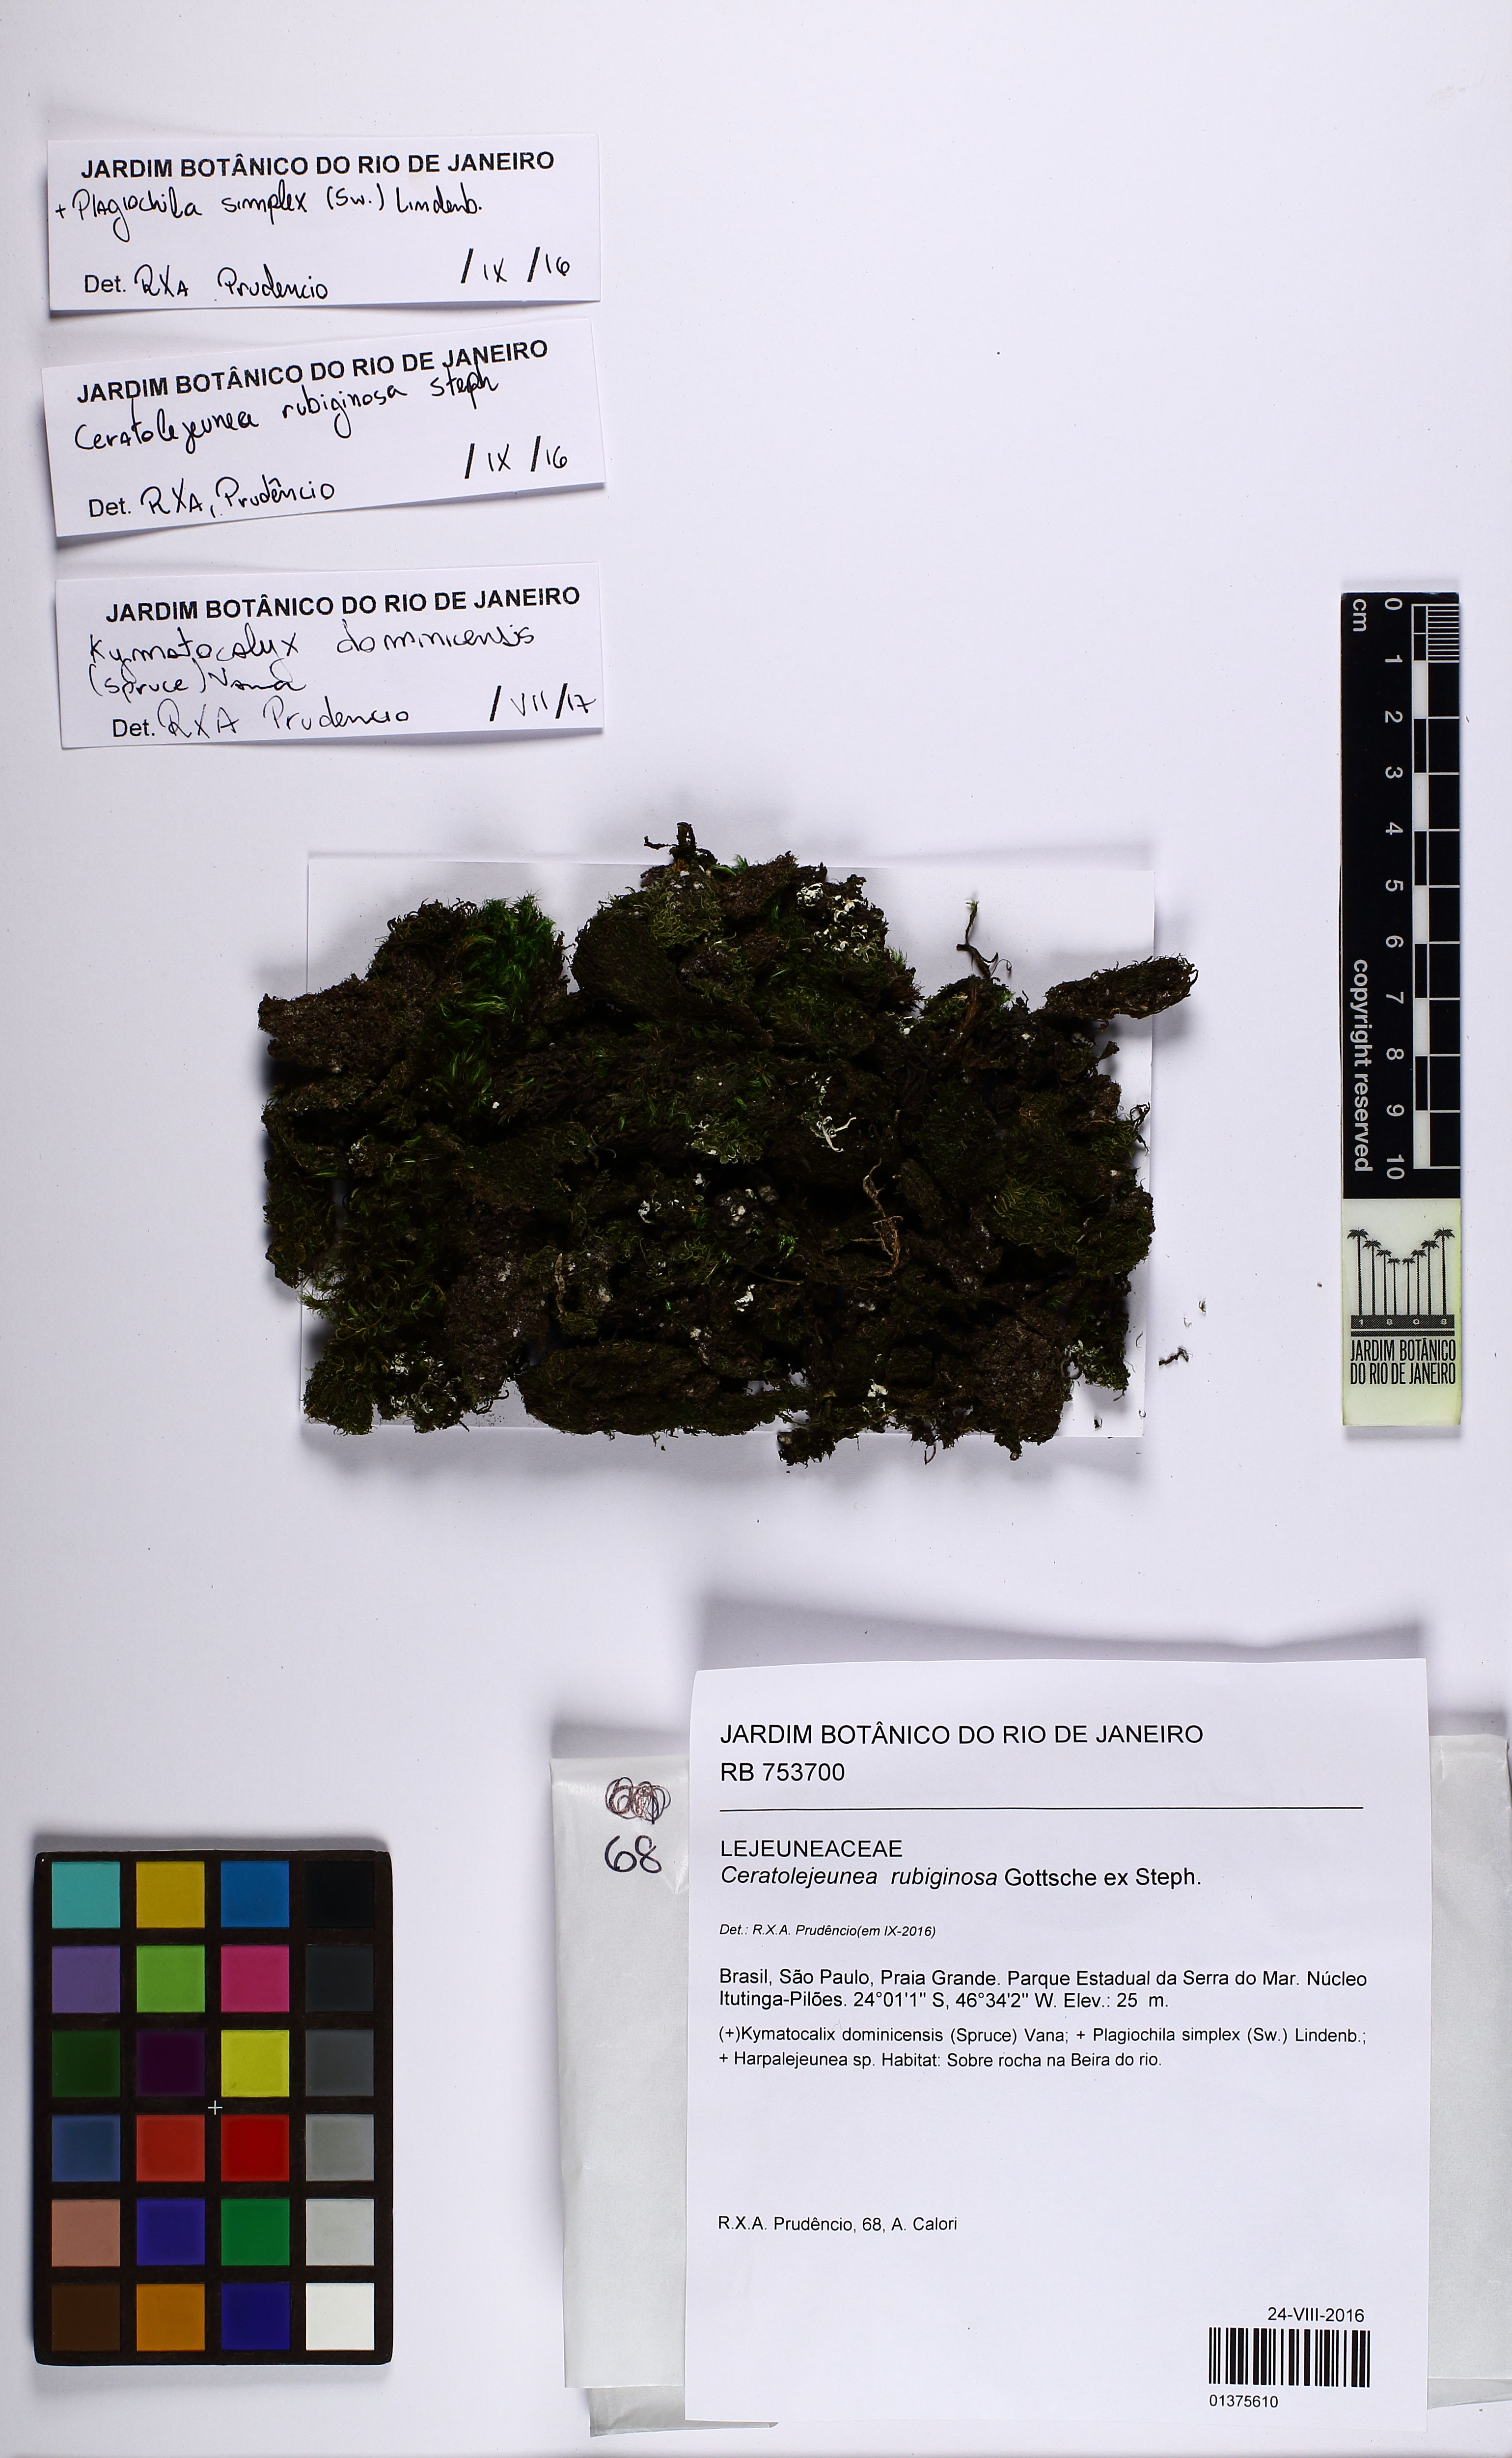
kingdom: Plantae
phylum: Marchantiophyta
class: Jungermanniopsida
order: Porellales
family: Lejeuneaceae
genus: Ceratolejeunea
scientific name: Ceratolejeunea rubiginosa
